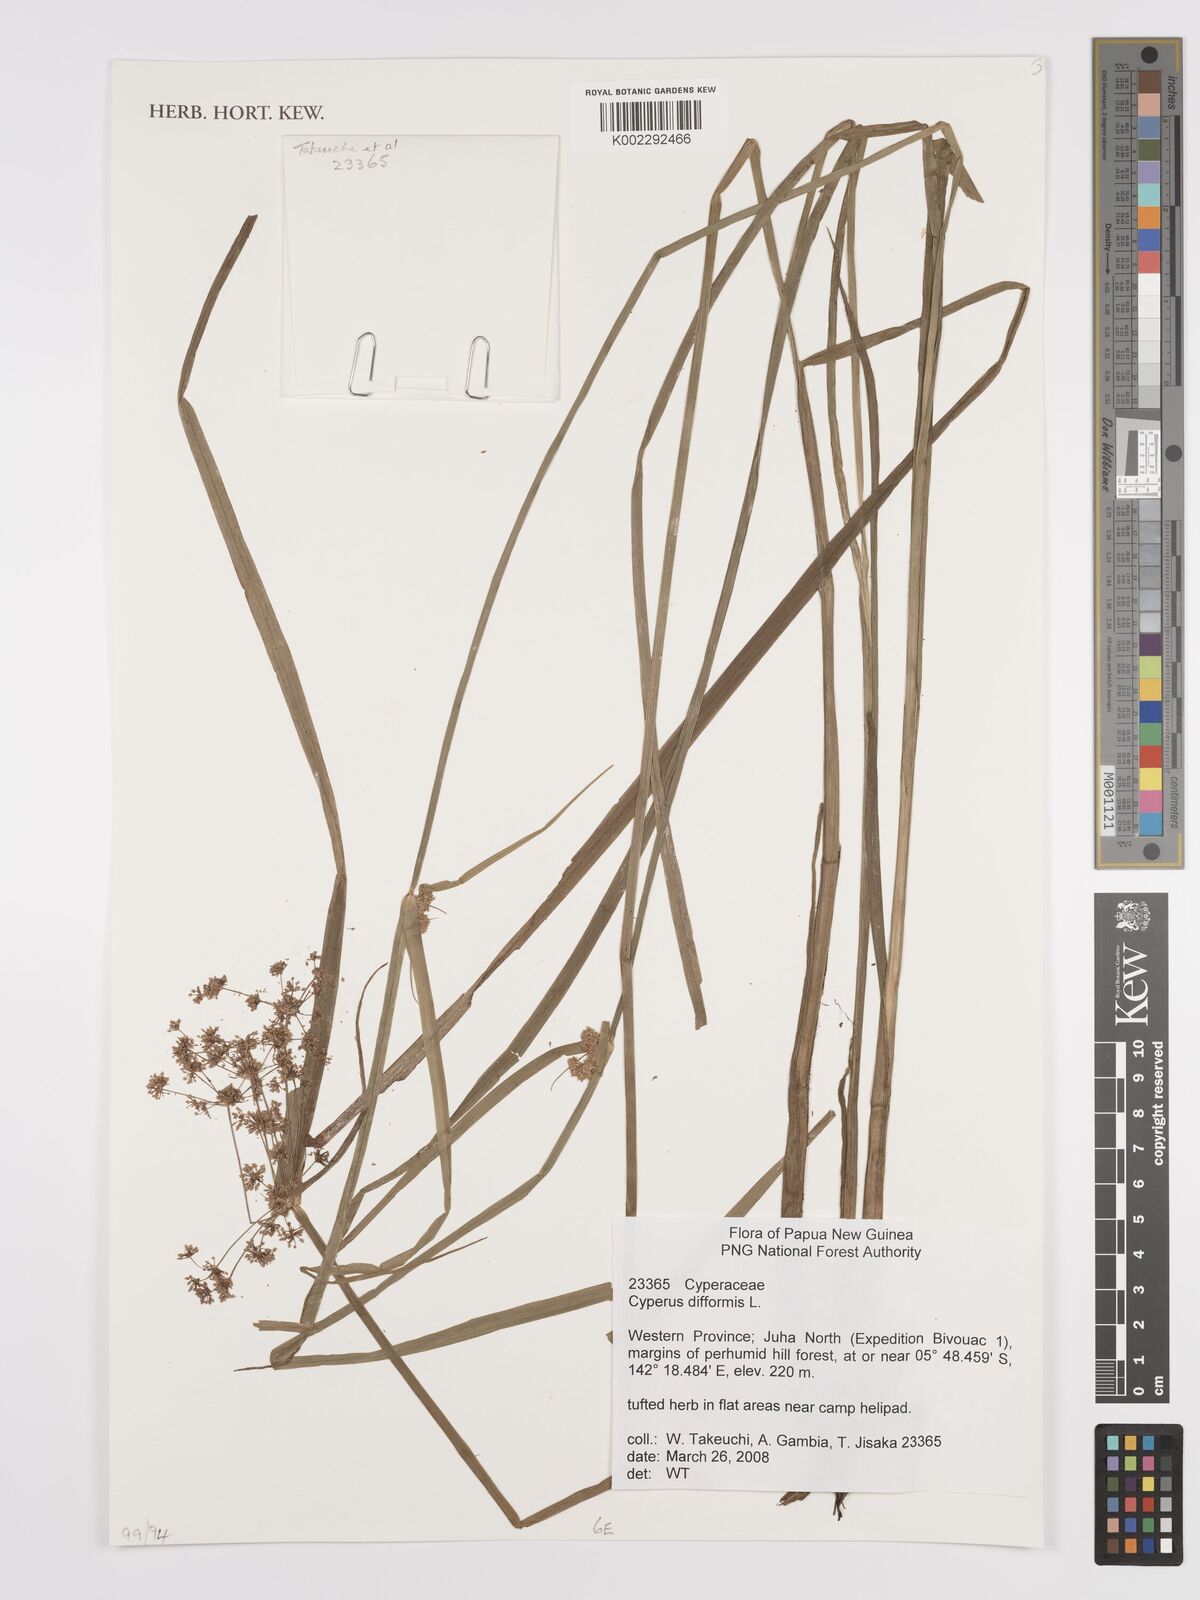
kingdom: Plantae
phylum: Tracheophyta
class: Liliopsida
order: Poales
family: Cyperaceae
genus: Cyperus
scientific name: Cyperus difformis
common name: Variable flatsedge
